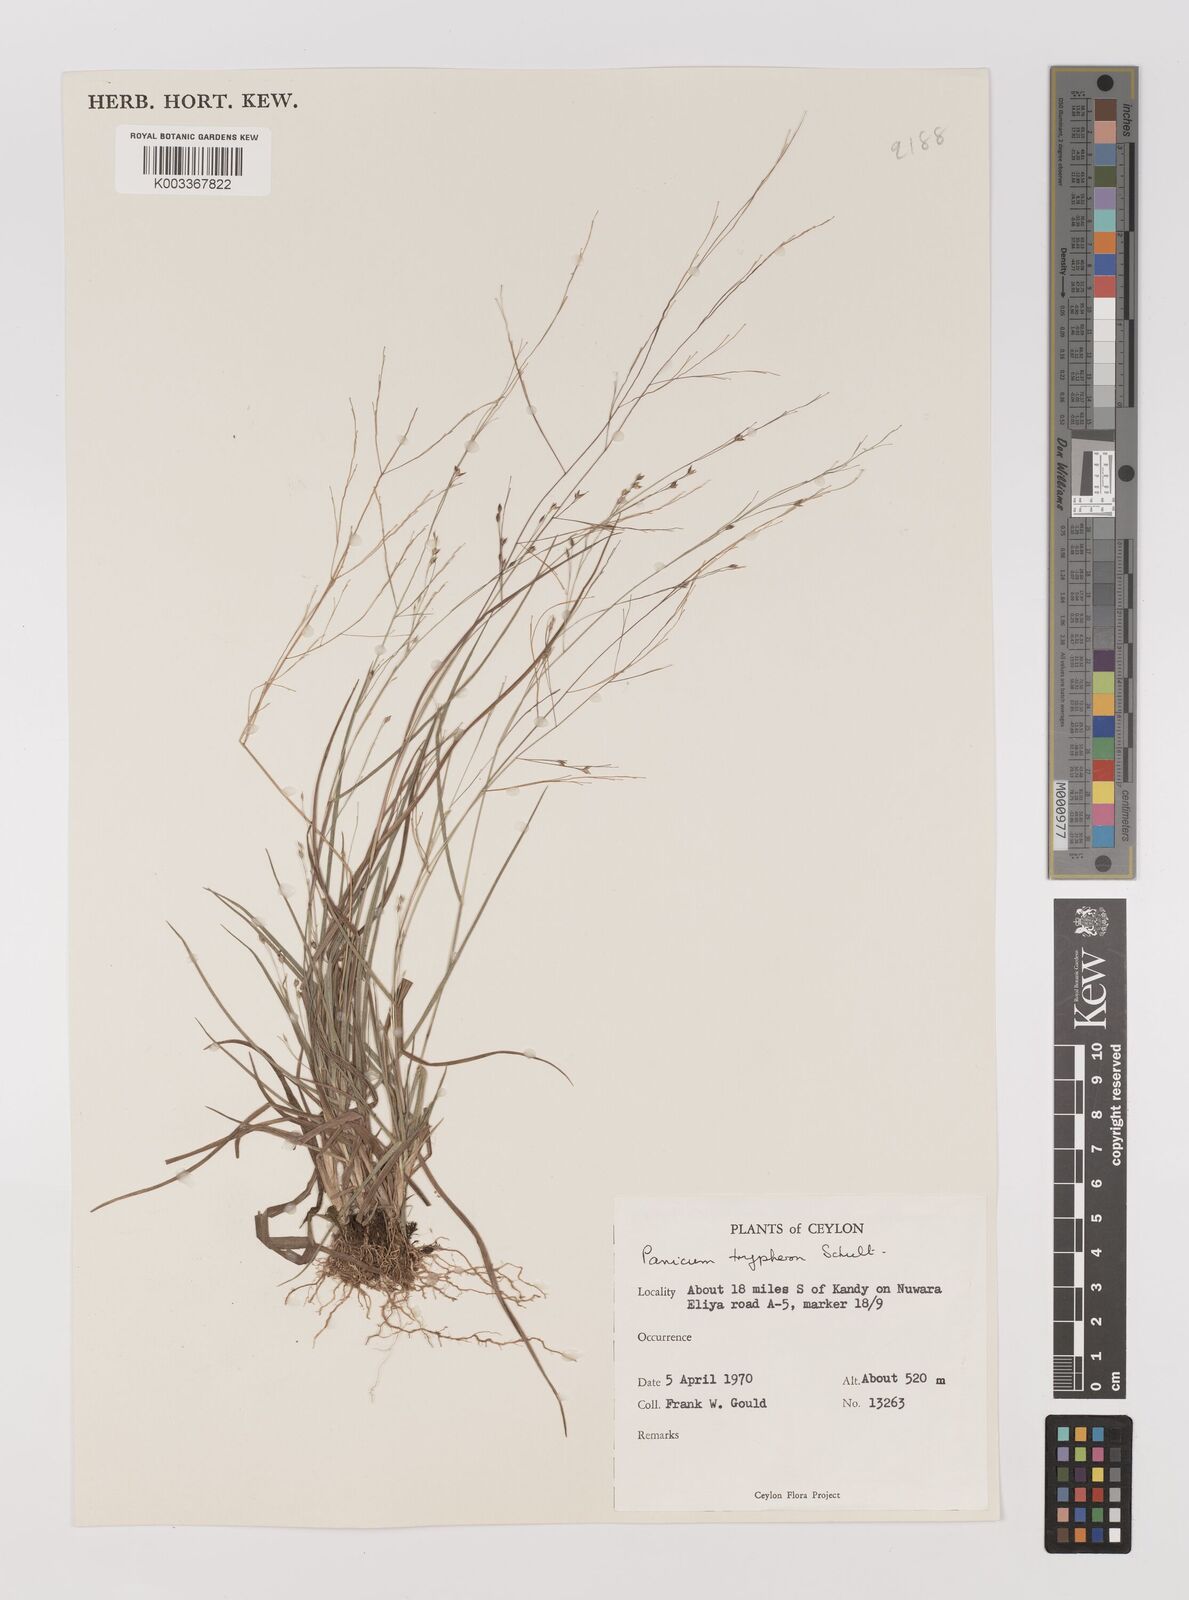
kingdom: Plantae
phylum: Tracheophyta
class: Liliopsida
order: Poales
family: Poaceae
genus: Panicum
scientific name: Panicum curviflorum
